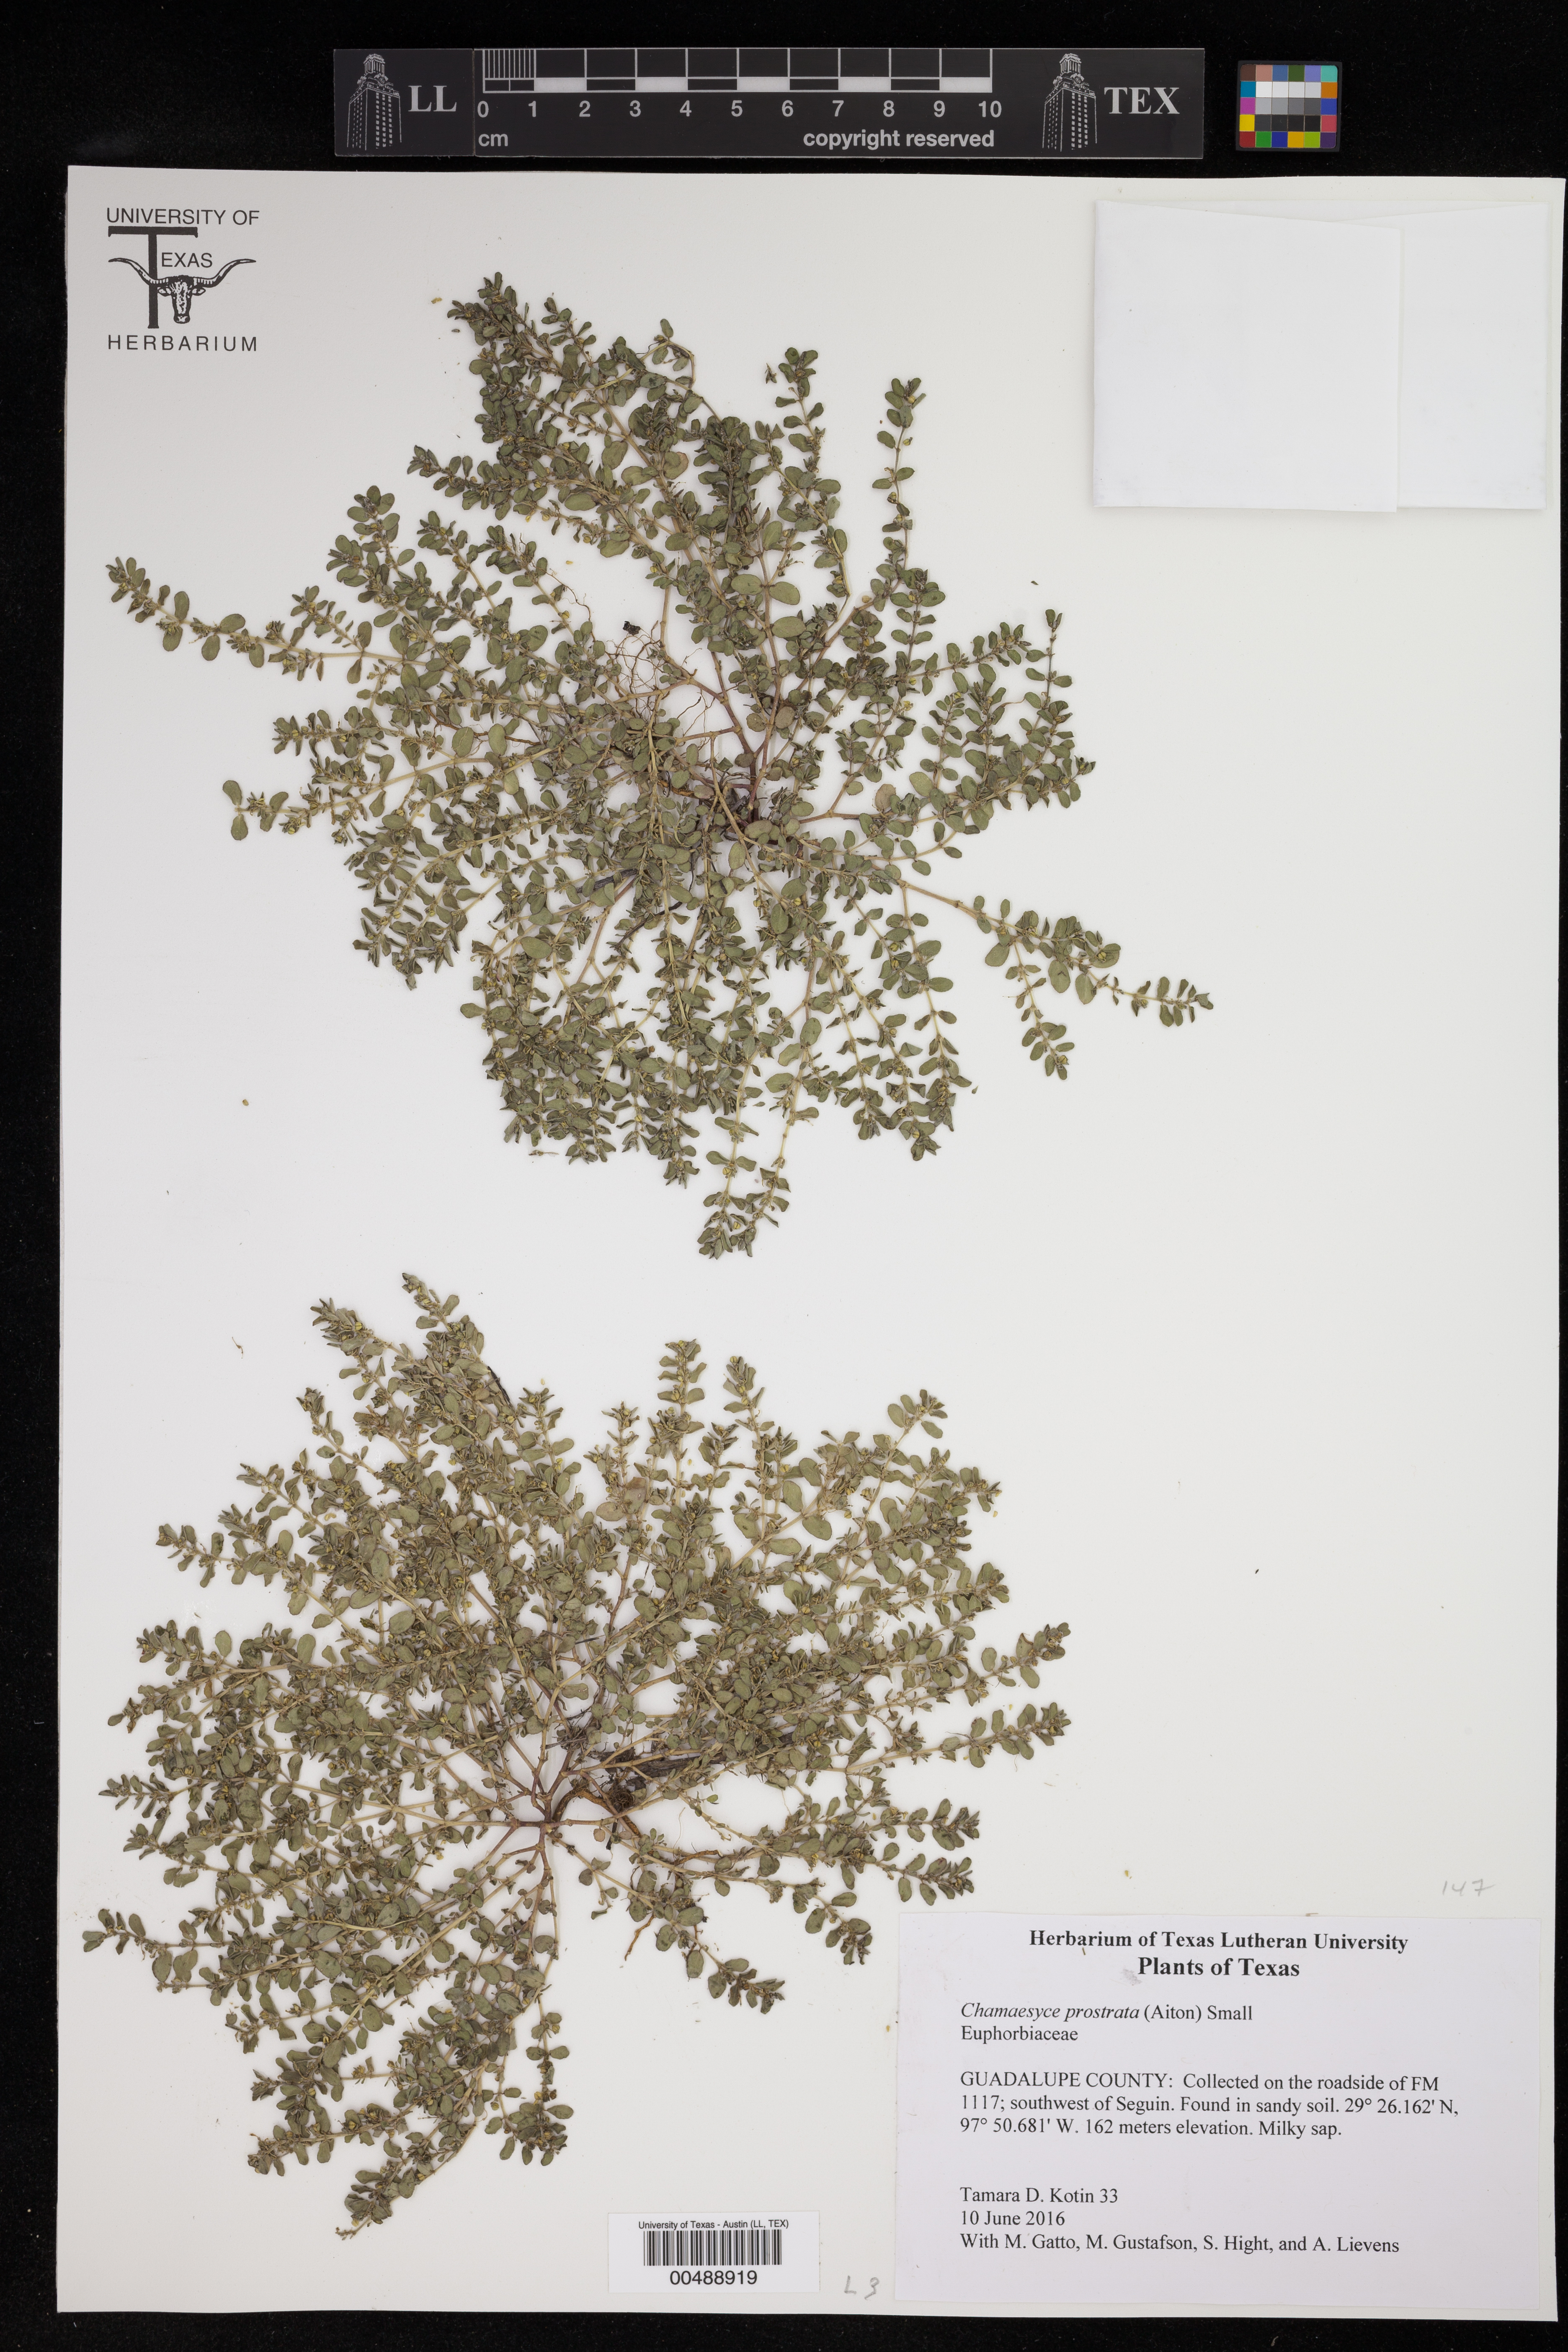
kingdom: Plantae
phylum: Tracheophyta
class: Magnoliopsida
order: Malpighiales
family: Euphorbiaceae
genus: Euphorbia
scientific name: Euphorbia prostrata
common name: Prostrate sandmat
